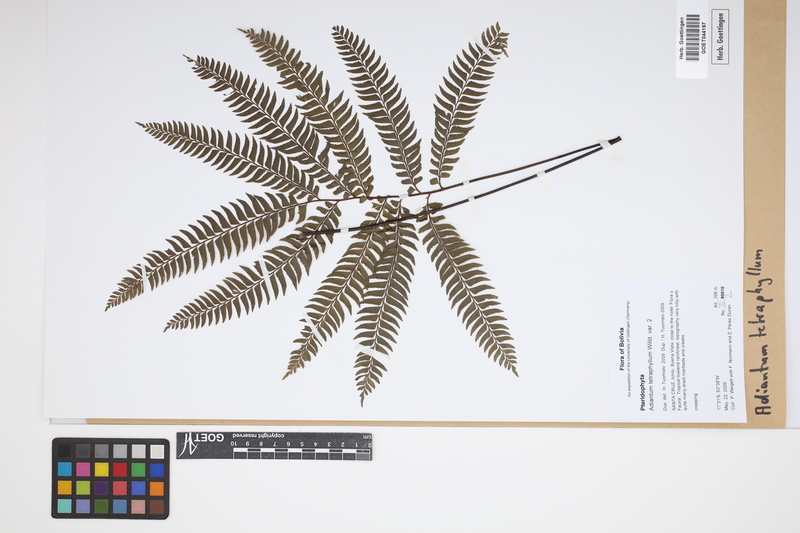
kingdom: Plantae
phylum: Tracheophyta
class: Polypodiopsida
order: Polypodiales
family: Pteridaceae
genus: Adiantum
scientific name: Adiantum tetraphyllum
